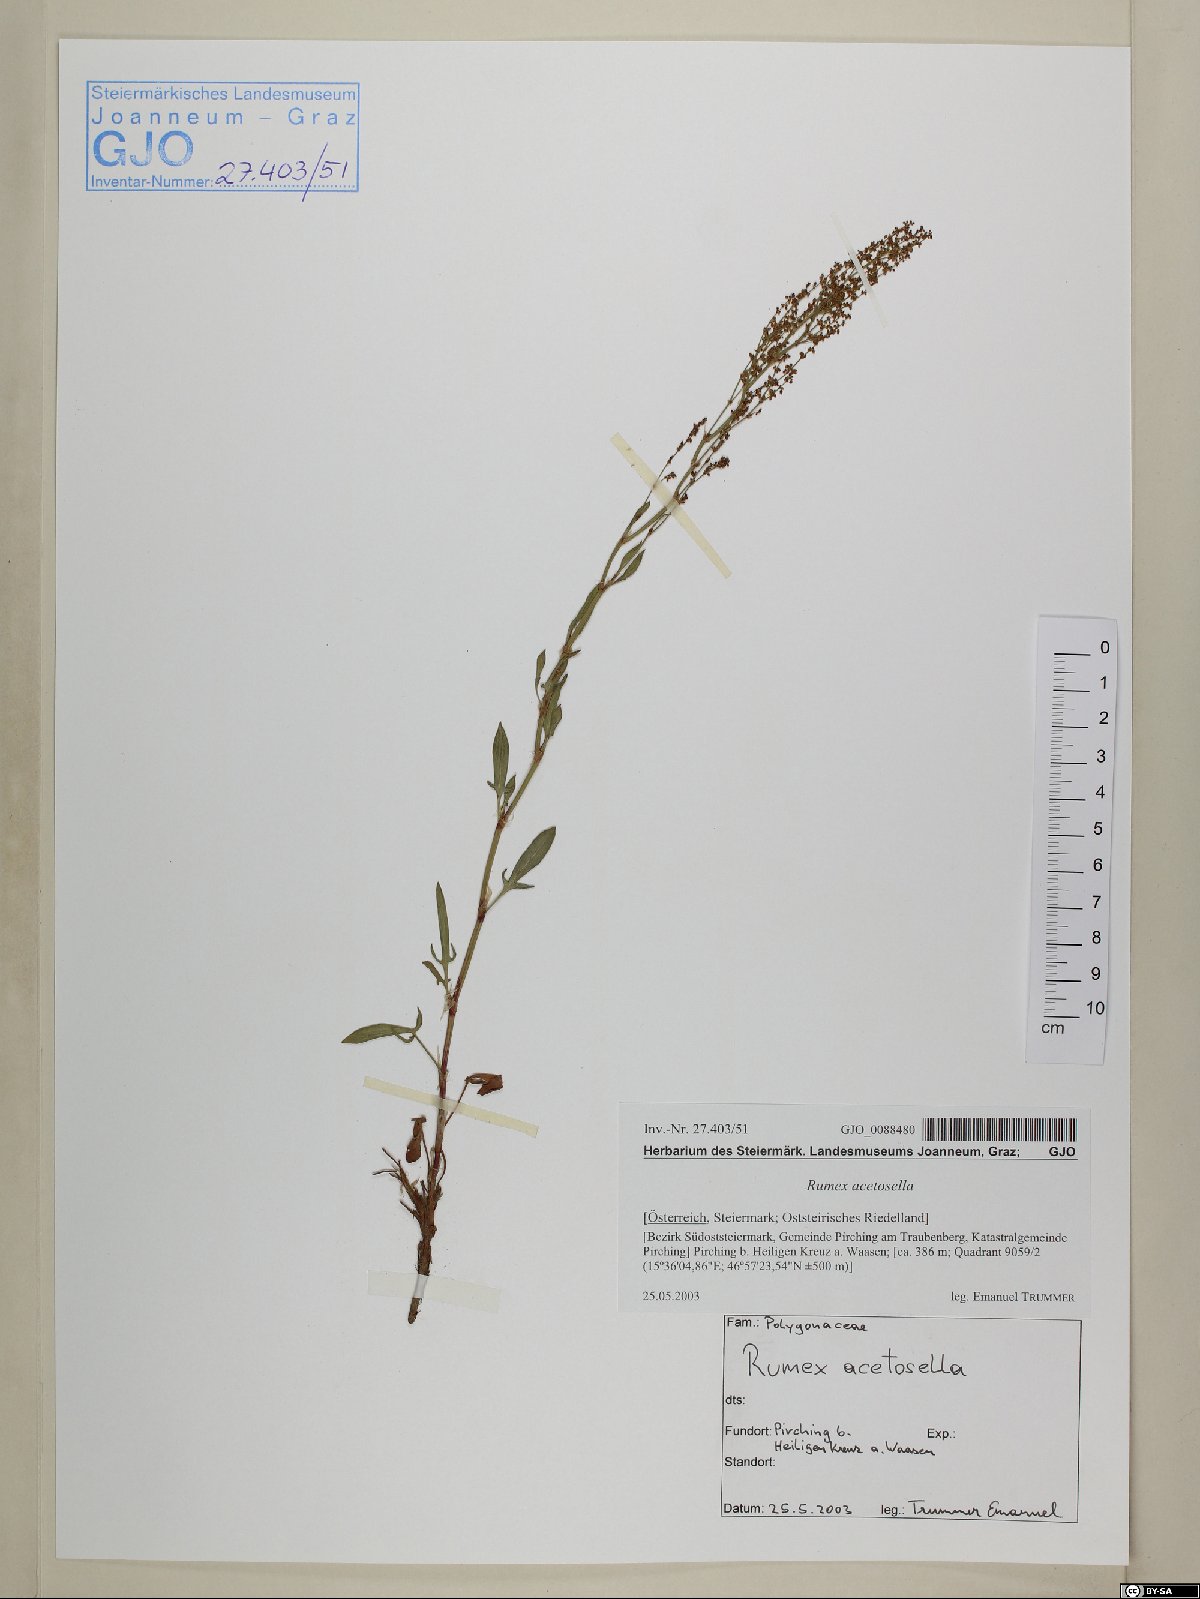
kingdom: Plantae
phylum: Tracheophyta
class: Magnoliopsida
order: Caryophyllales
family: Polygonaceae
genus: Rumex
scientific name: Rumex acetosella
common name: Common sheep sorrel
